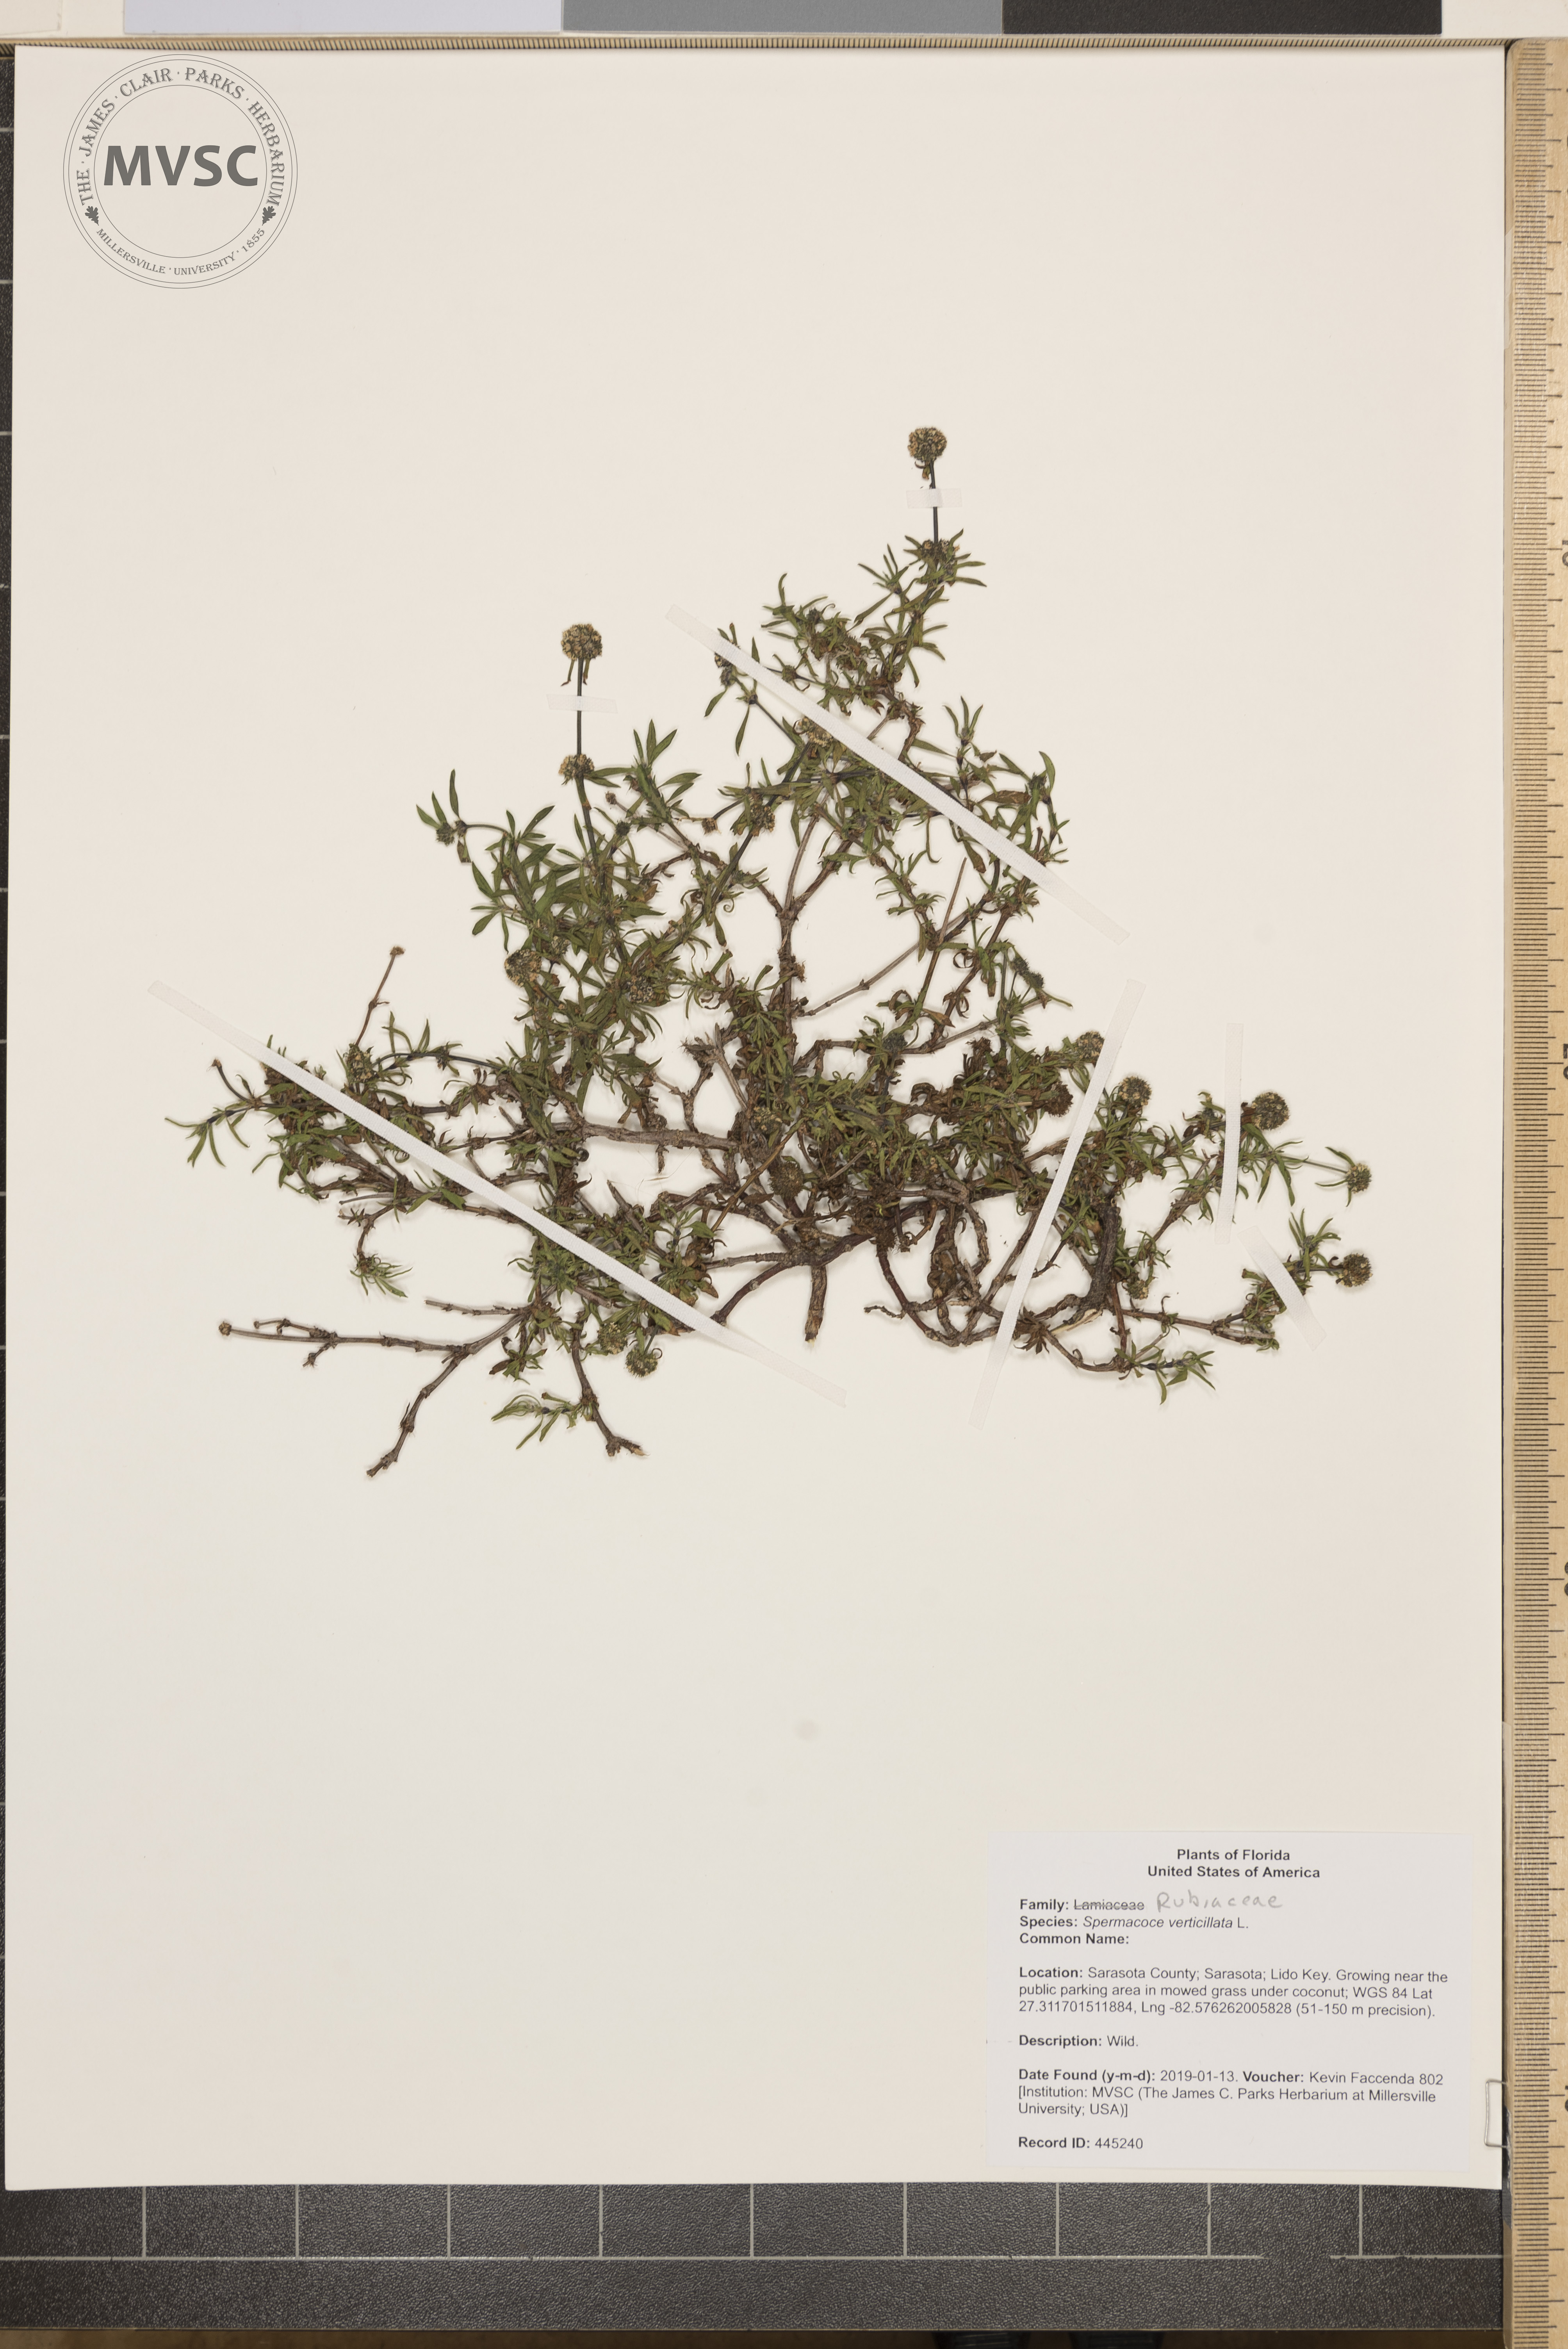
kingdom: Plantae
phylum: Tracheophyta
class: Magnoliopsida
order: Gentianales
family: Rubiaceae
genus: Spermacoce
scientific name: Spermacoce verticillata
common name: Shrubby false buttonweed
